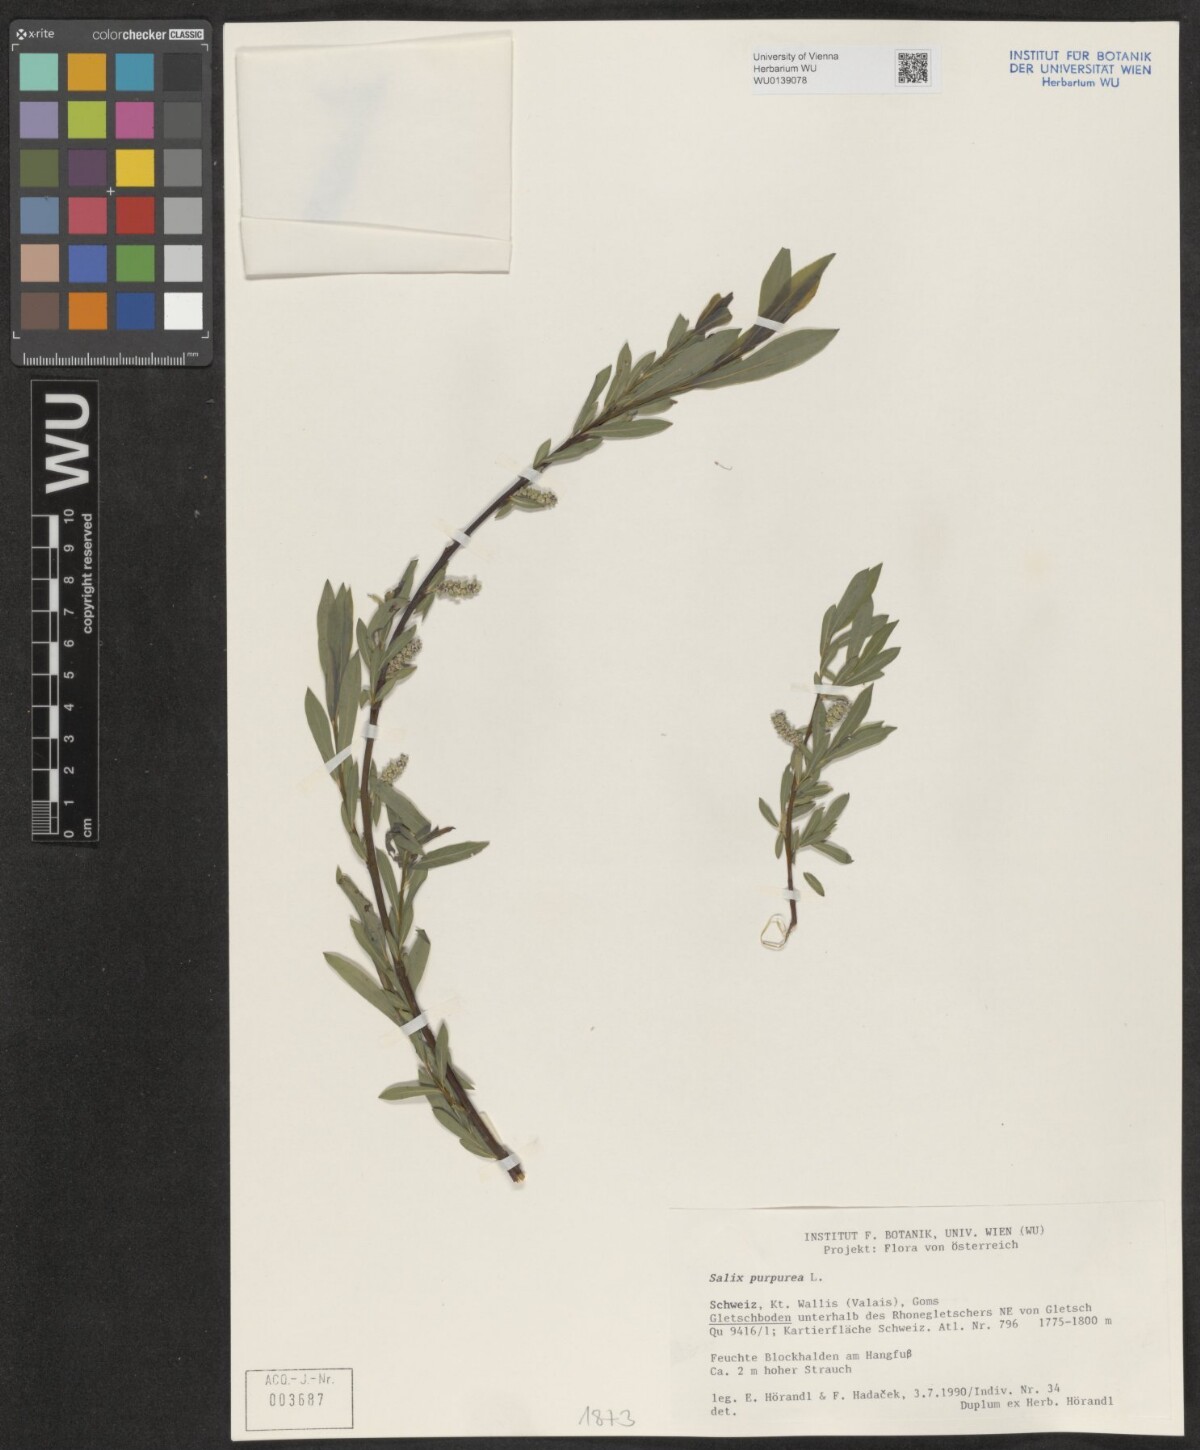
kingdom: Plantae
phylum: Tracheophyta
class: Magnoliopsida
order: Malpighiales
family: Salicaceae
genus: Salix
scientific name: Salix purpurea
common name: Purple willow
